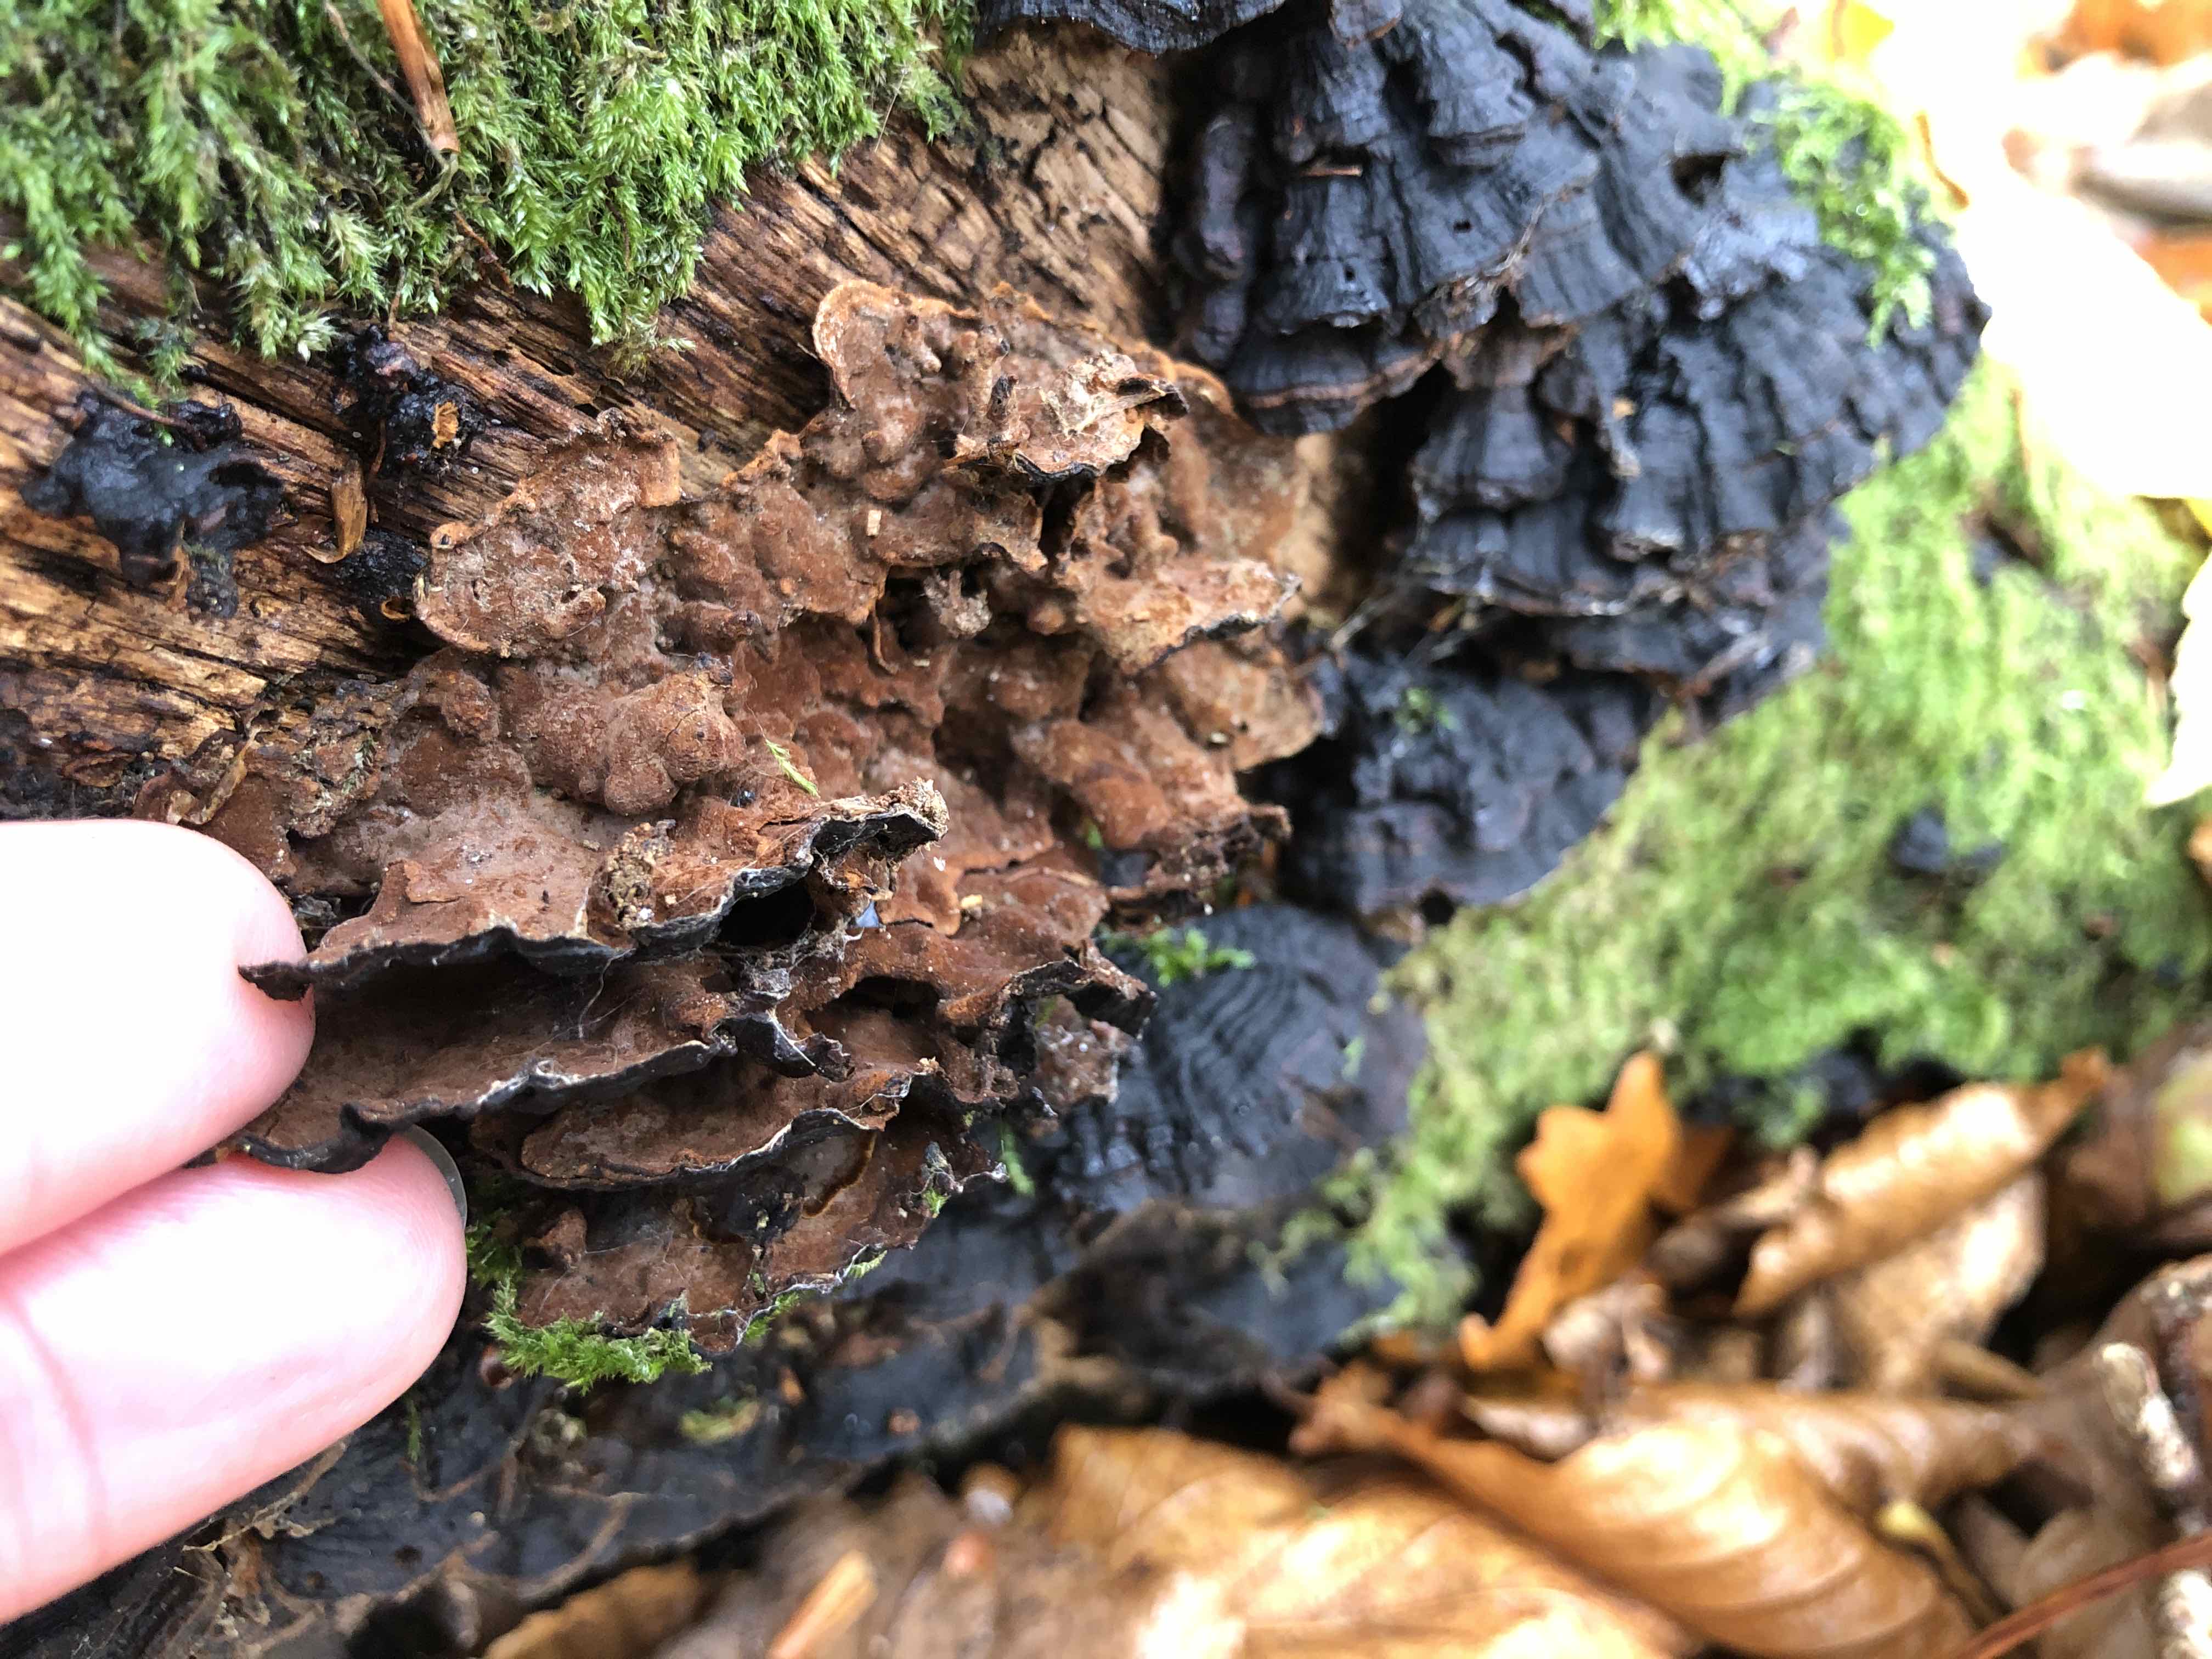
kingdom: Fungi
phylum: Basidiomycota
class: Agaricomycetes
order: Hymenochaetales
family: Hymenochaetaceae
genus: Hymenochaete
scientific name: Hymenochaete rubiginosa
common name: stiv ruslædersvamp
